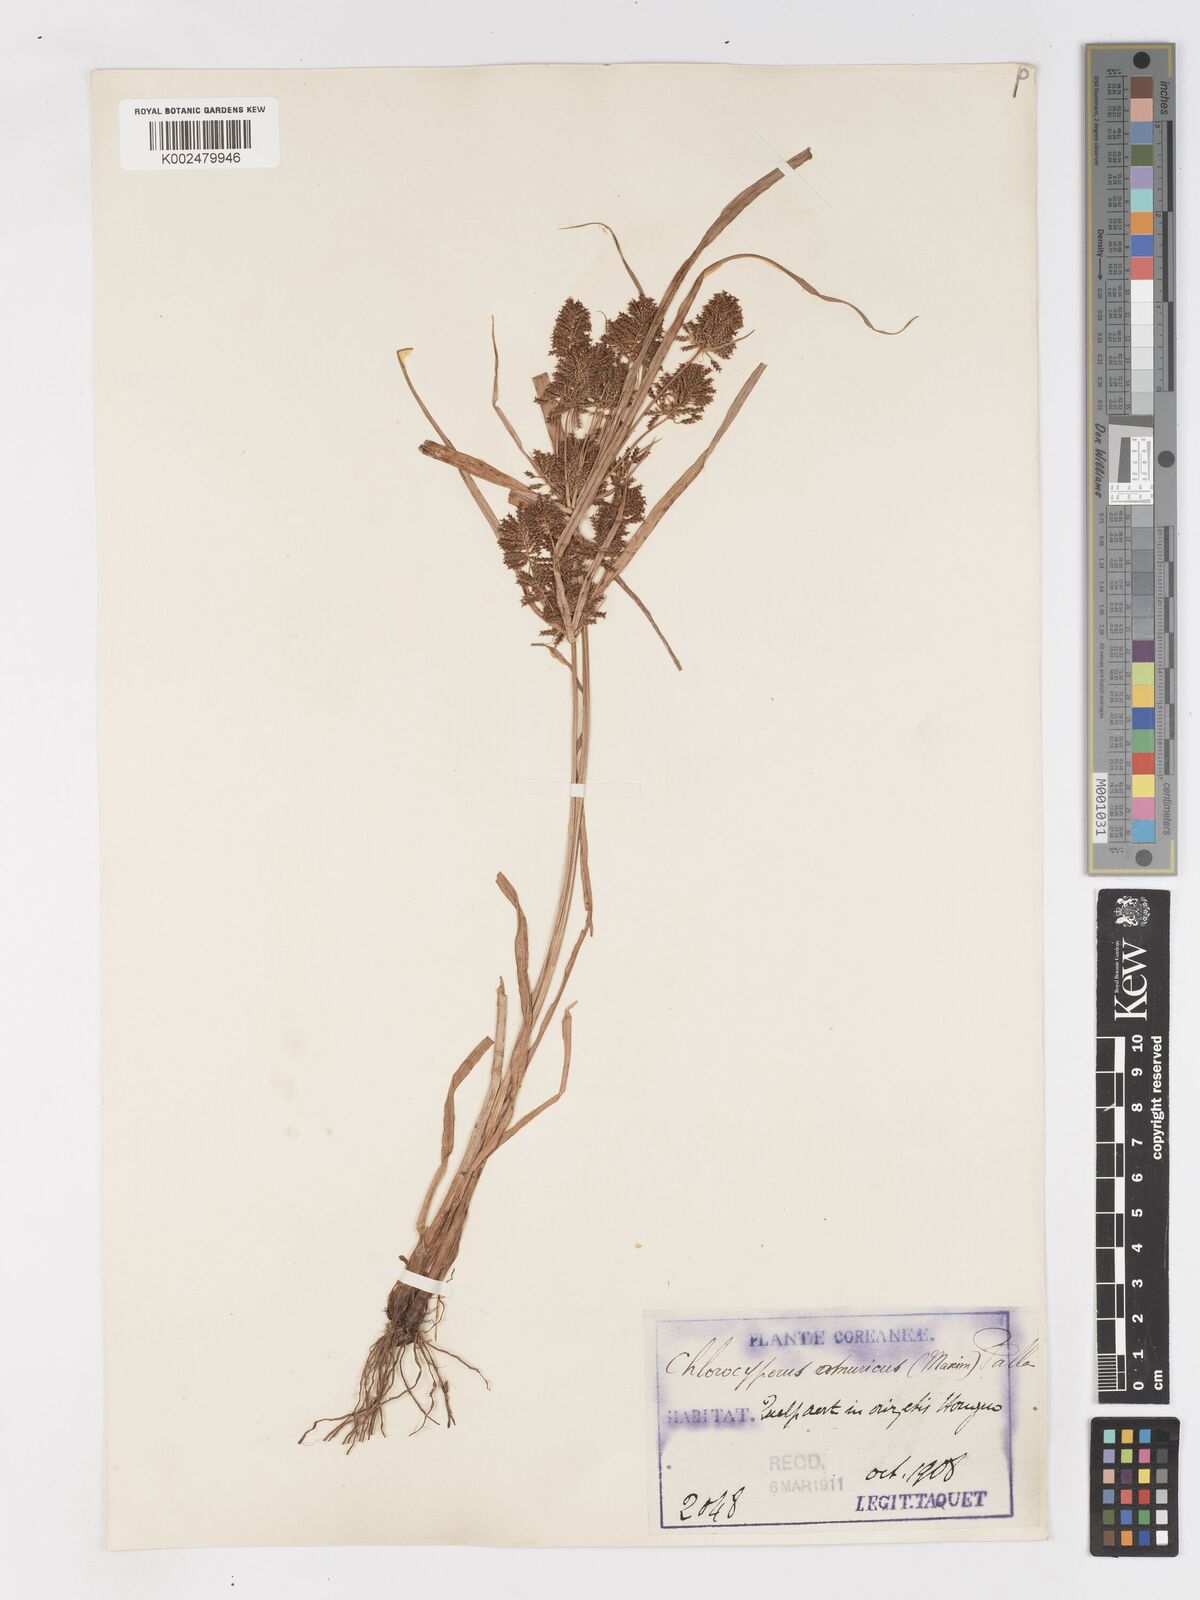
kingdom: Plantae
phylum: Tracheophyta
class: Liliopsida
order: Poales
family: Cyperaceae
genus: Cyperus
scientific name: Cyperus amuricus
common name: Asian flatsedge
